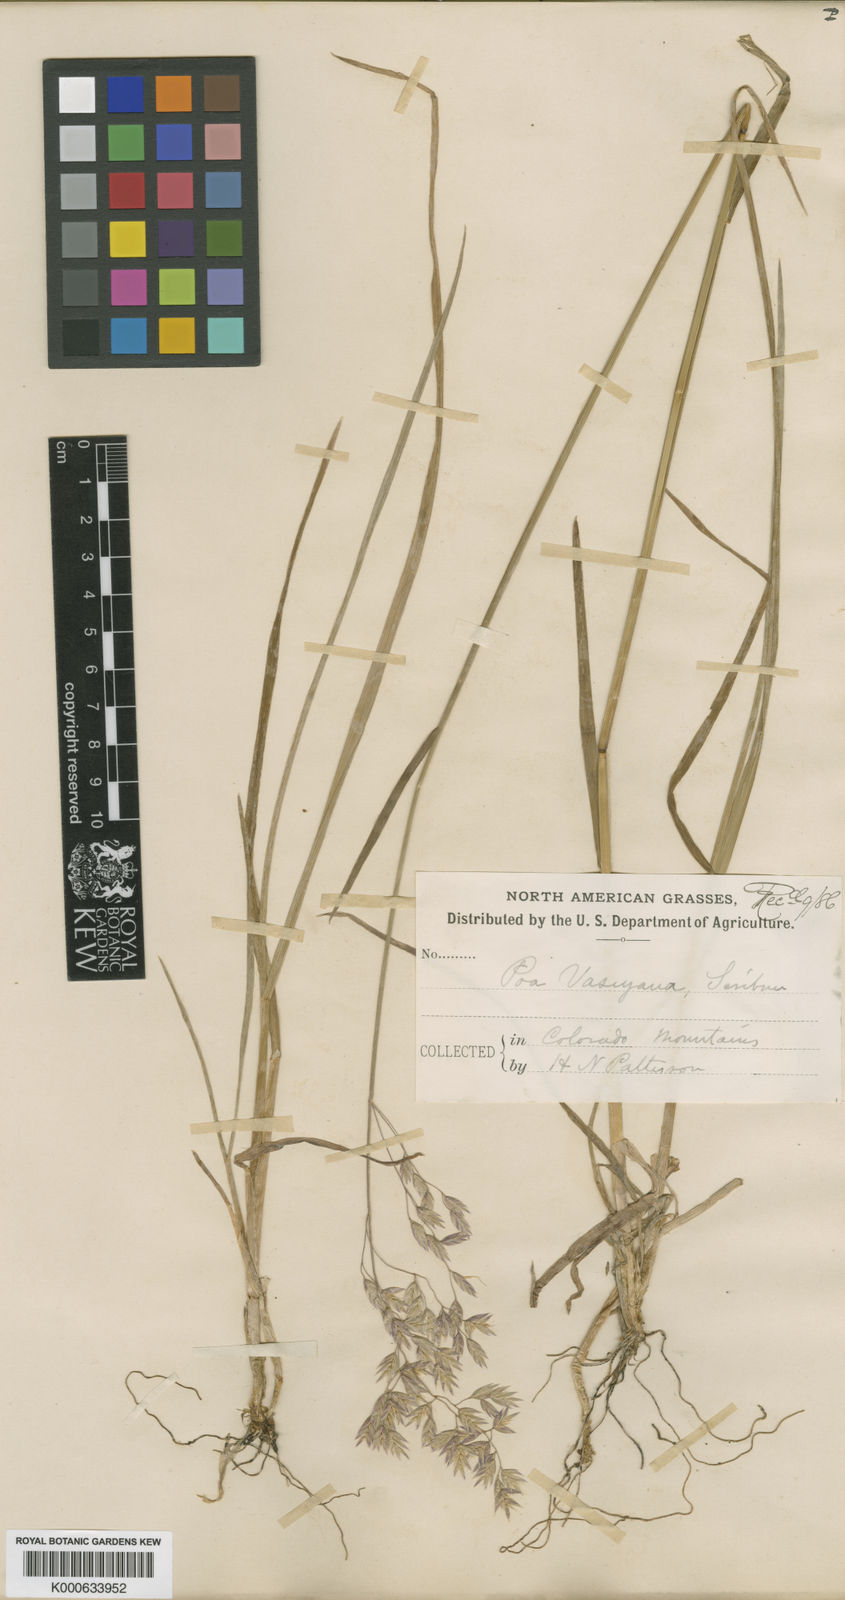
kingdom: Plantae
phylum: Tracheophyta
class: Liliopsida
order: Poales
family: Poaceae
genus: Poa
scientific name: Poa nervosa
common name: Hooker's bluegrass
